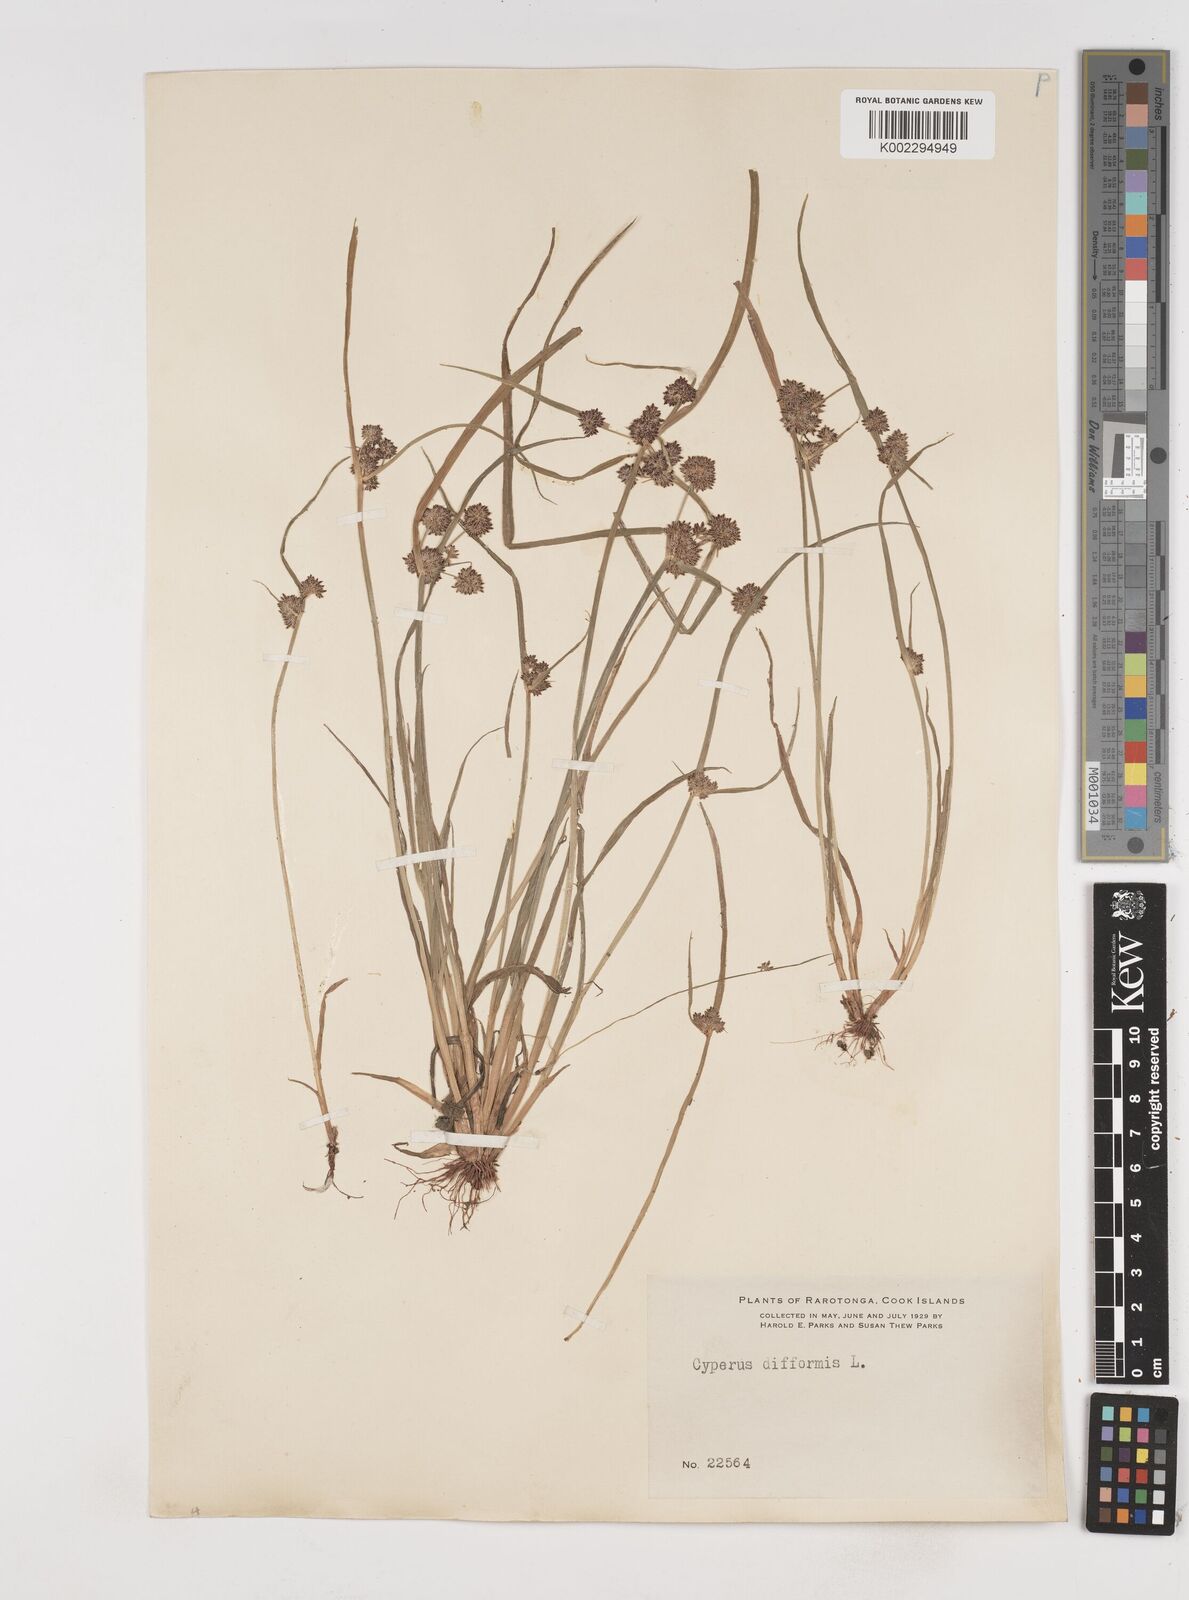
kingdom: Plantae
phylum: Tracheophyta
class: Liliopsida
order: Poales
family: Cyperaceae
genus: Cyperus
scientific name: Cyperus difformis
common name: Variable flatsedge
